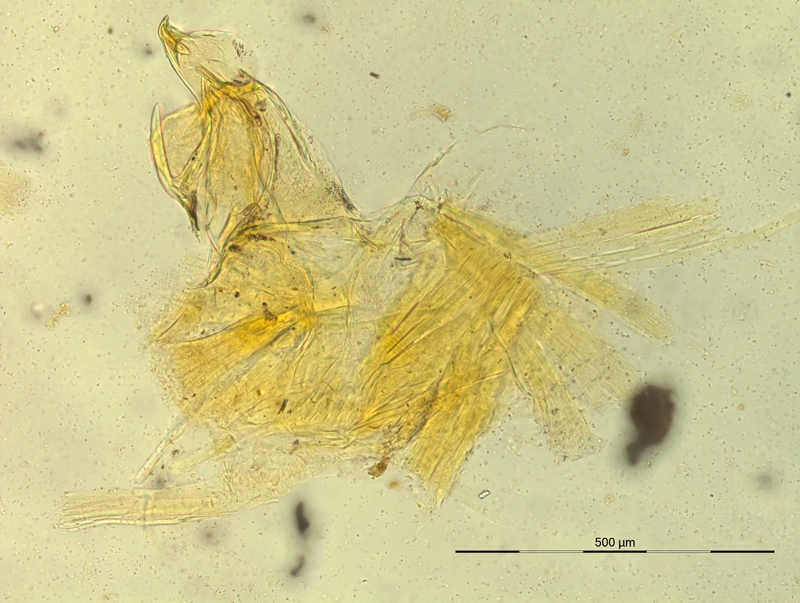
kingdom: Animalia
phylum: Arthropoda
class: Diplopoda
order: Chordeumatida
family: Craspedosomatidae
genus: Oroposoma
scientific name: Oroposoma catascaphium
